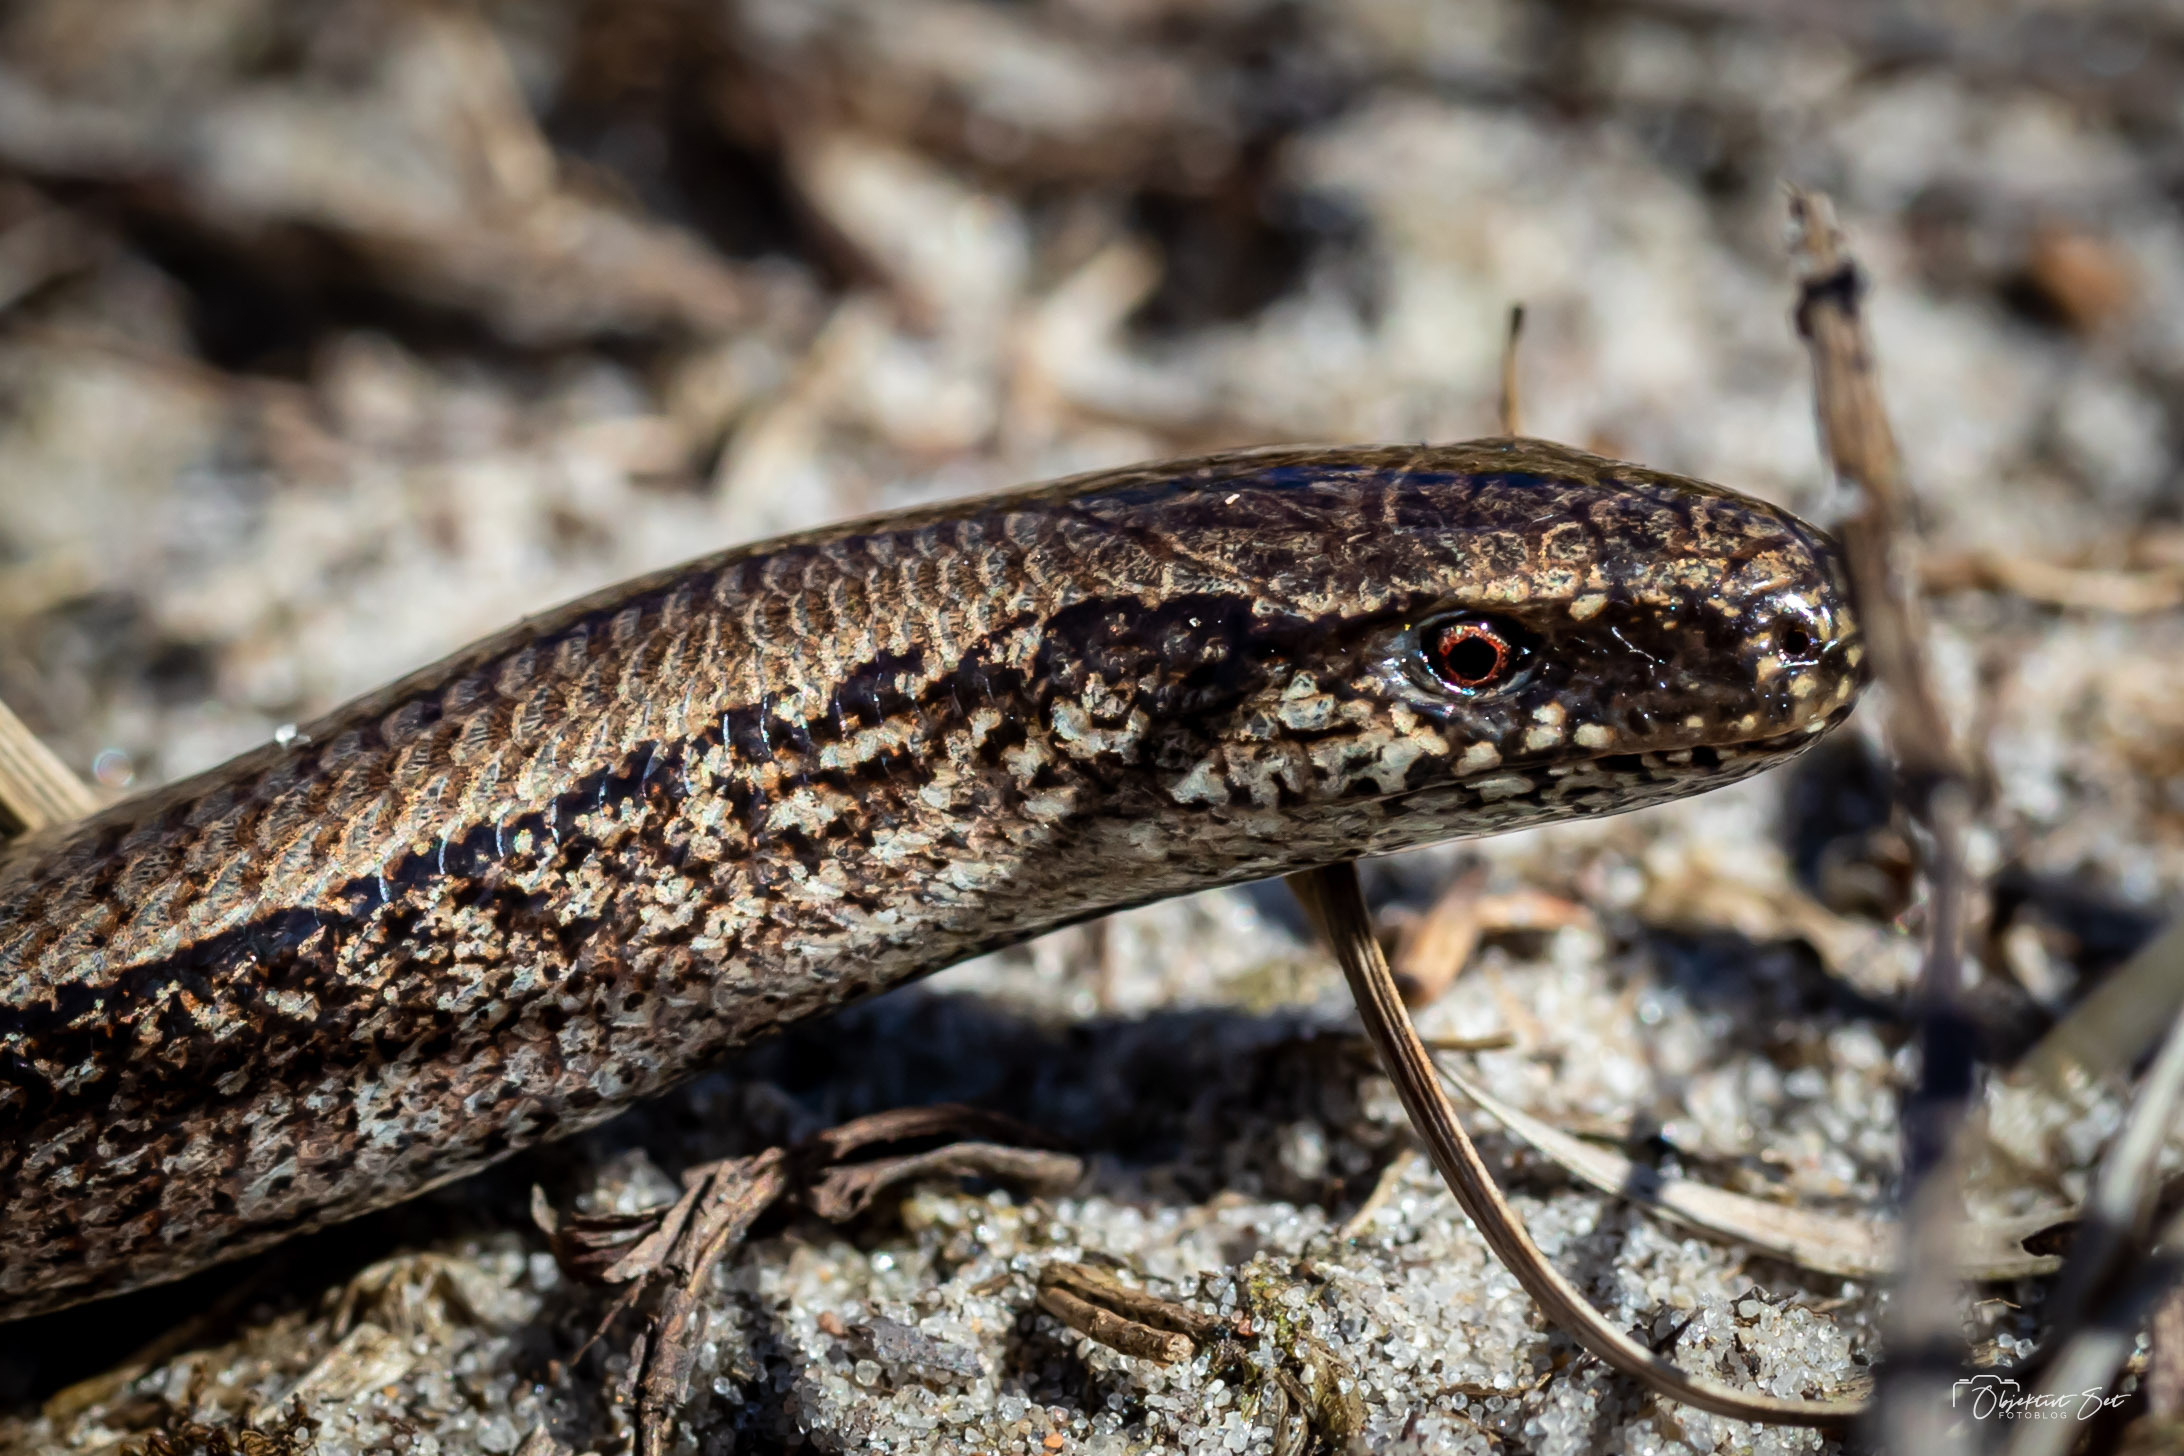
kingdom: Animalia
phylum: Chordata
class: Squamata
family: Anguidae
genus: Anguis
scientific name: Anguis fragilis
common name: Stålorm
